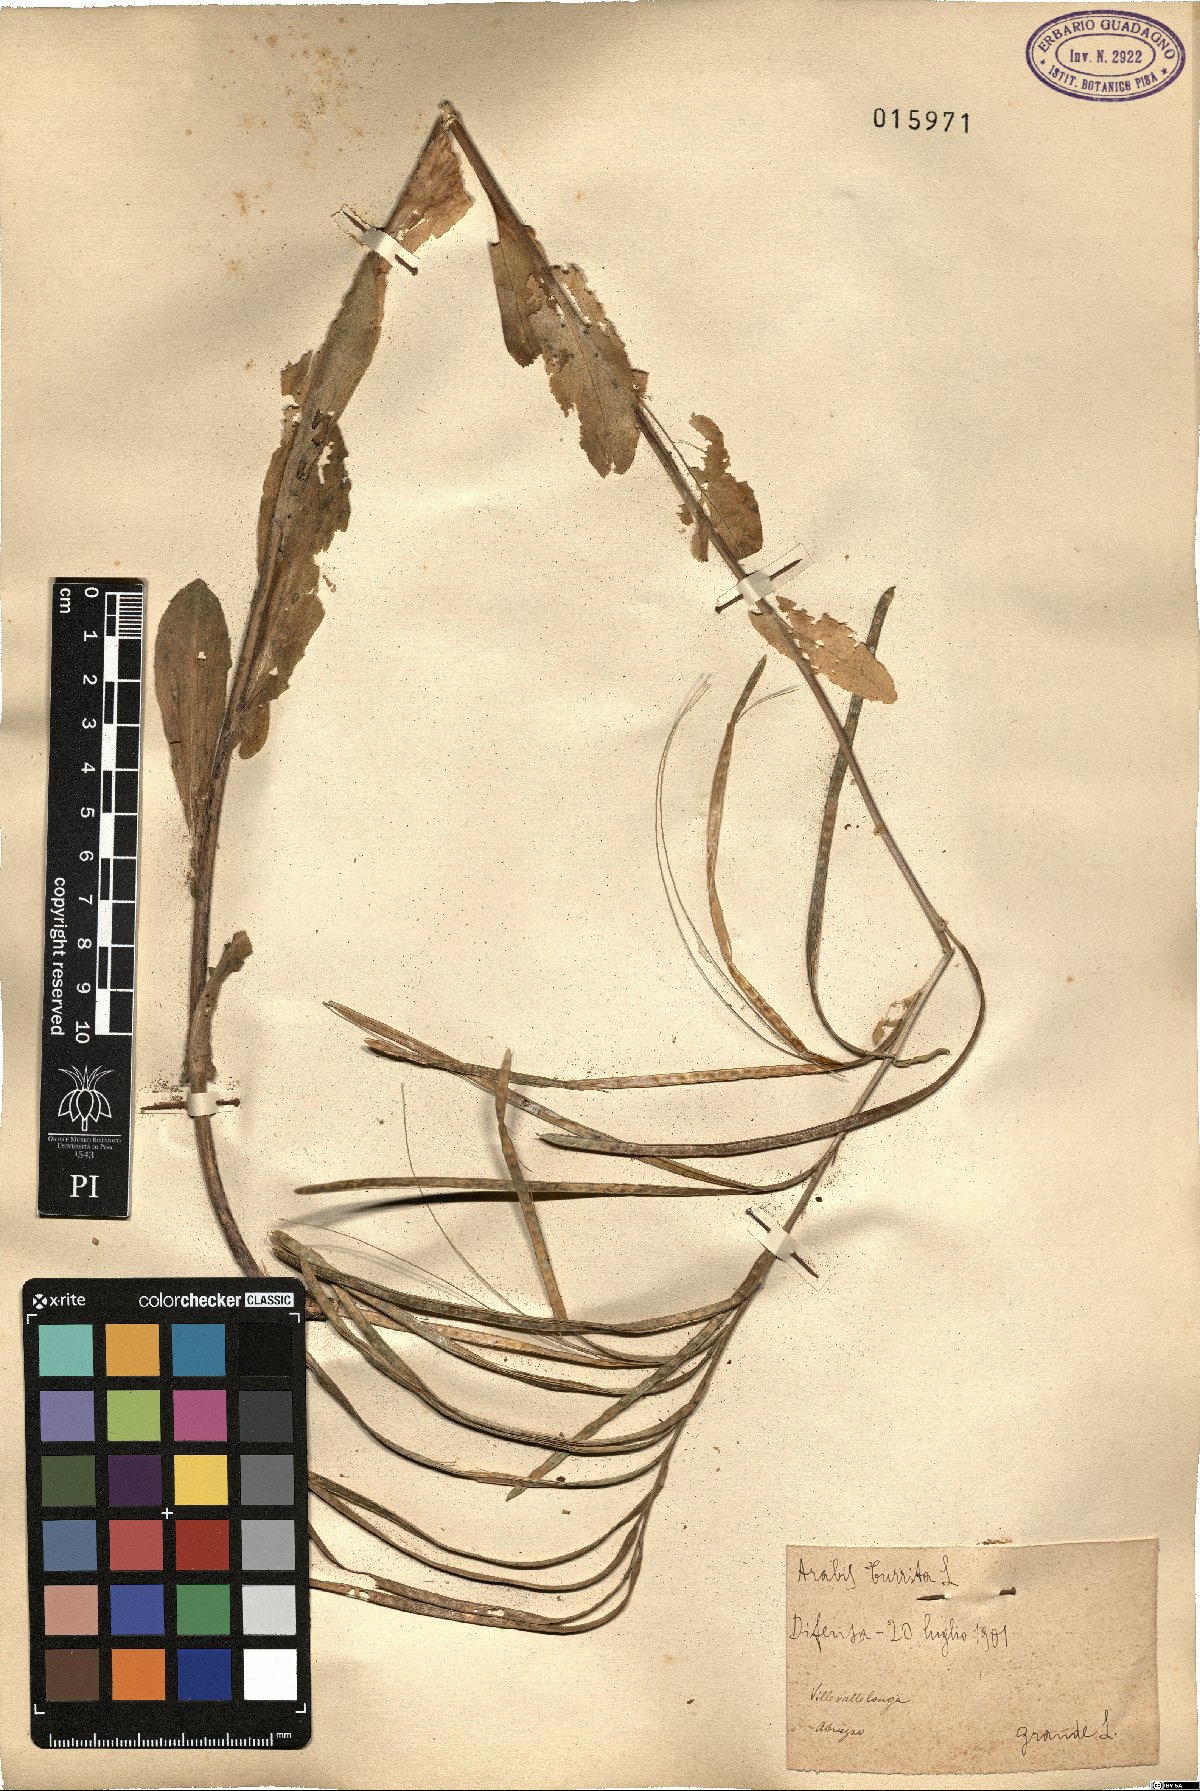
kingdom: Plantae
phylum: Tracheophyta
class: Magnoliopsida
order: Brassicales
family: Brassicaceae
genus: Pseudoturritis
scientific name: Pseudoturritis turrita
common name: Tower cress
